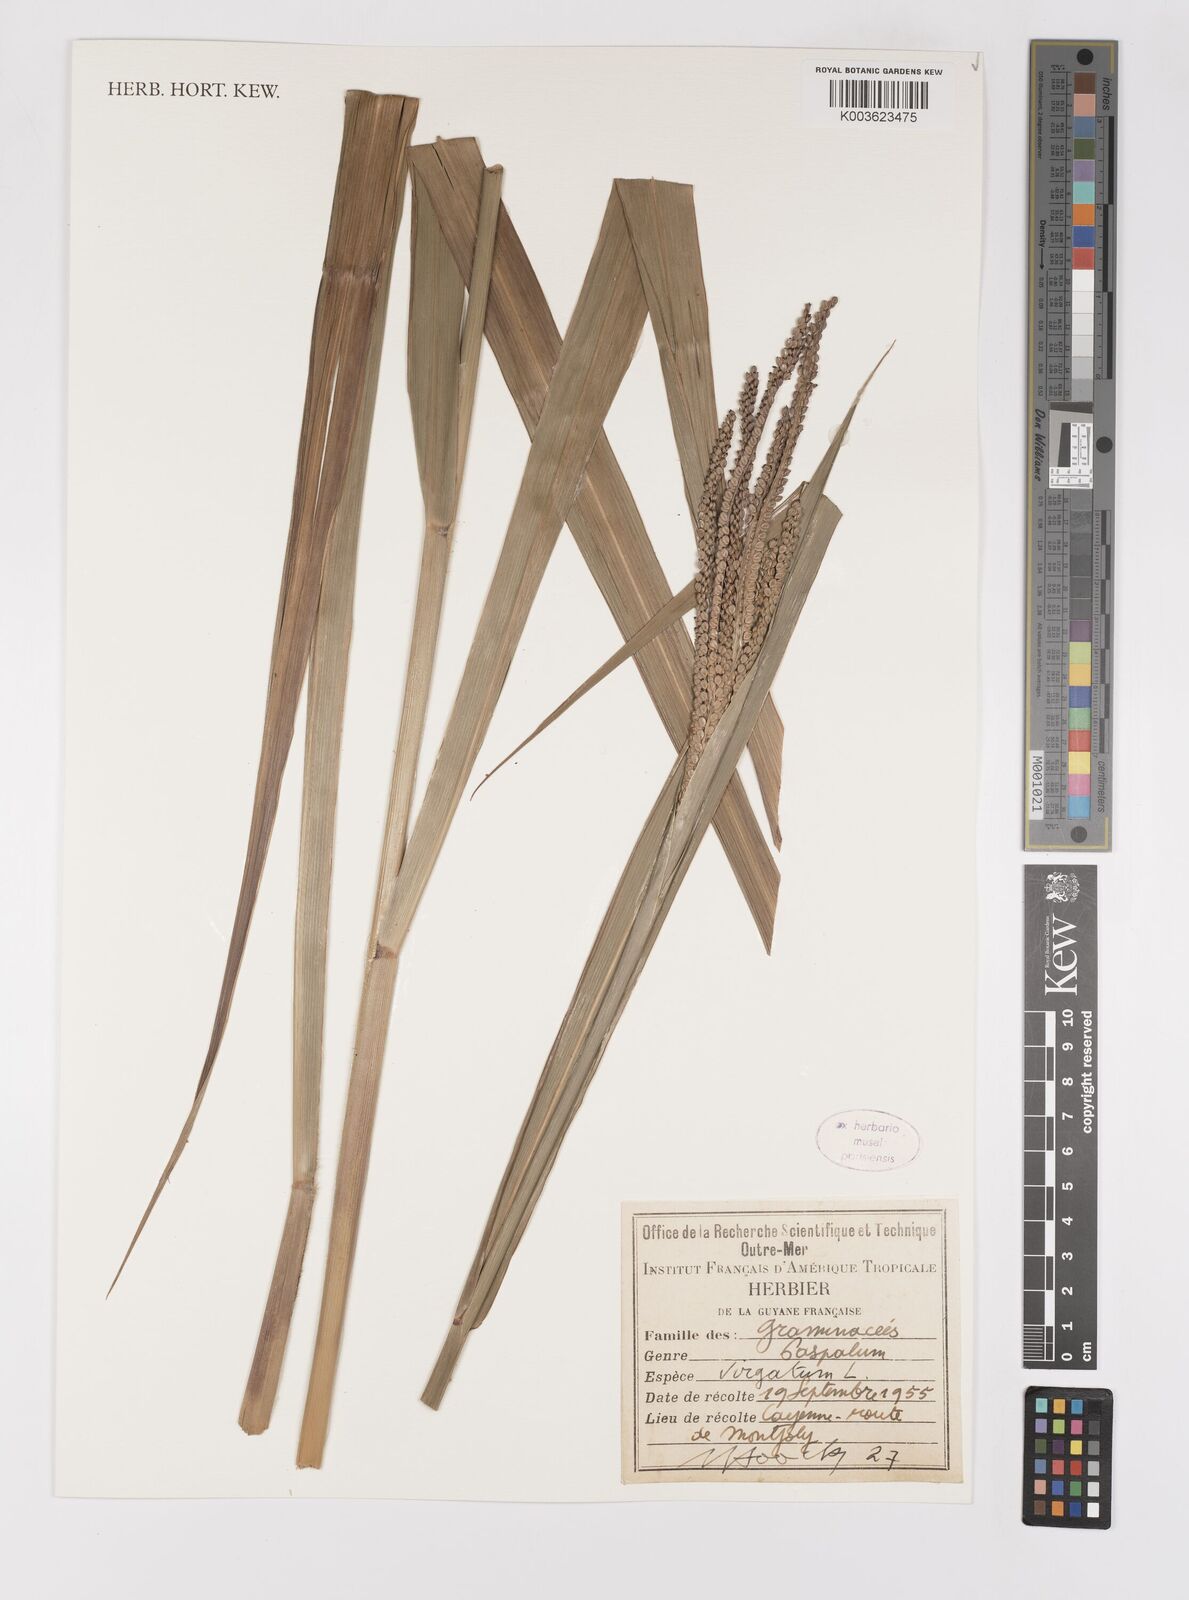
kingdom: Plantae
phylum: Tracheophyta
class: Liliopsida
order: Poales
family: Poaceae
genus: Paspalum
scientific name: Paspalum virgatum
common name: Talquezal
